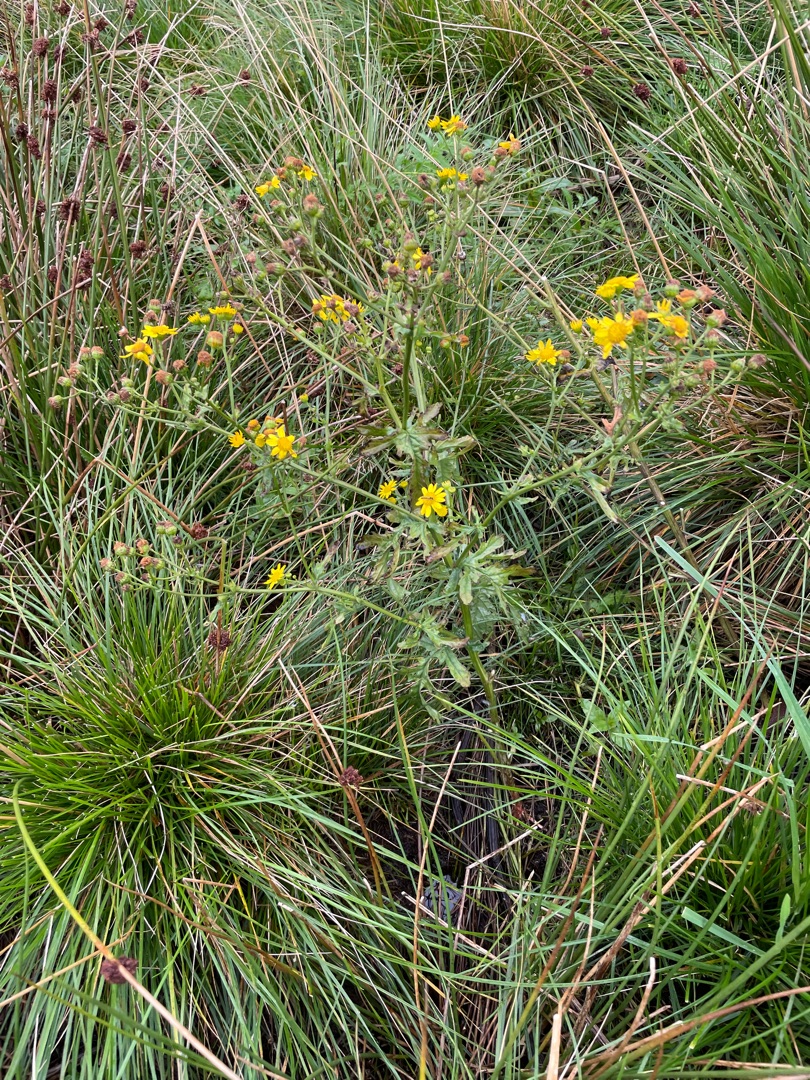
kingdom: Plantae
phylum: Tracheophyta
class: Magnoliopsida
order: Asterales
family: Asteraceae
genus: Jacobaea
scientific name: Jacobaea aquatica
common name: Vand-brandbæger
